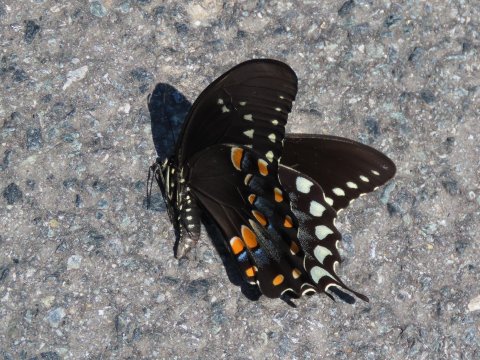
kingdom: Animalia
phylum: Arthropoda
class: Insecta
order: Lepidoptera
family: Papilionidae
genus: Pterourus
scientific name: Pterourus troilus
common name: Spicebush Swallowtail
